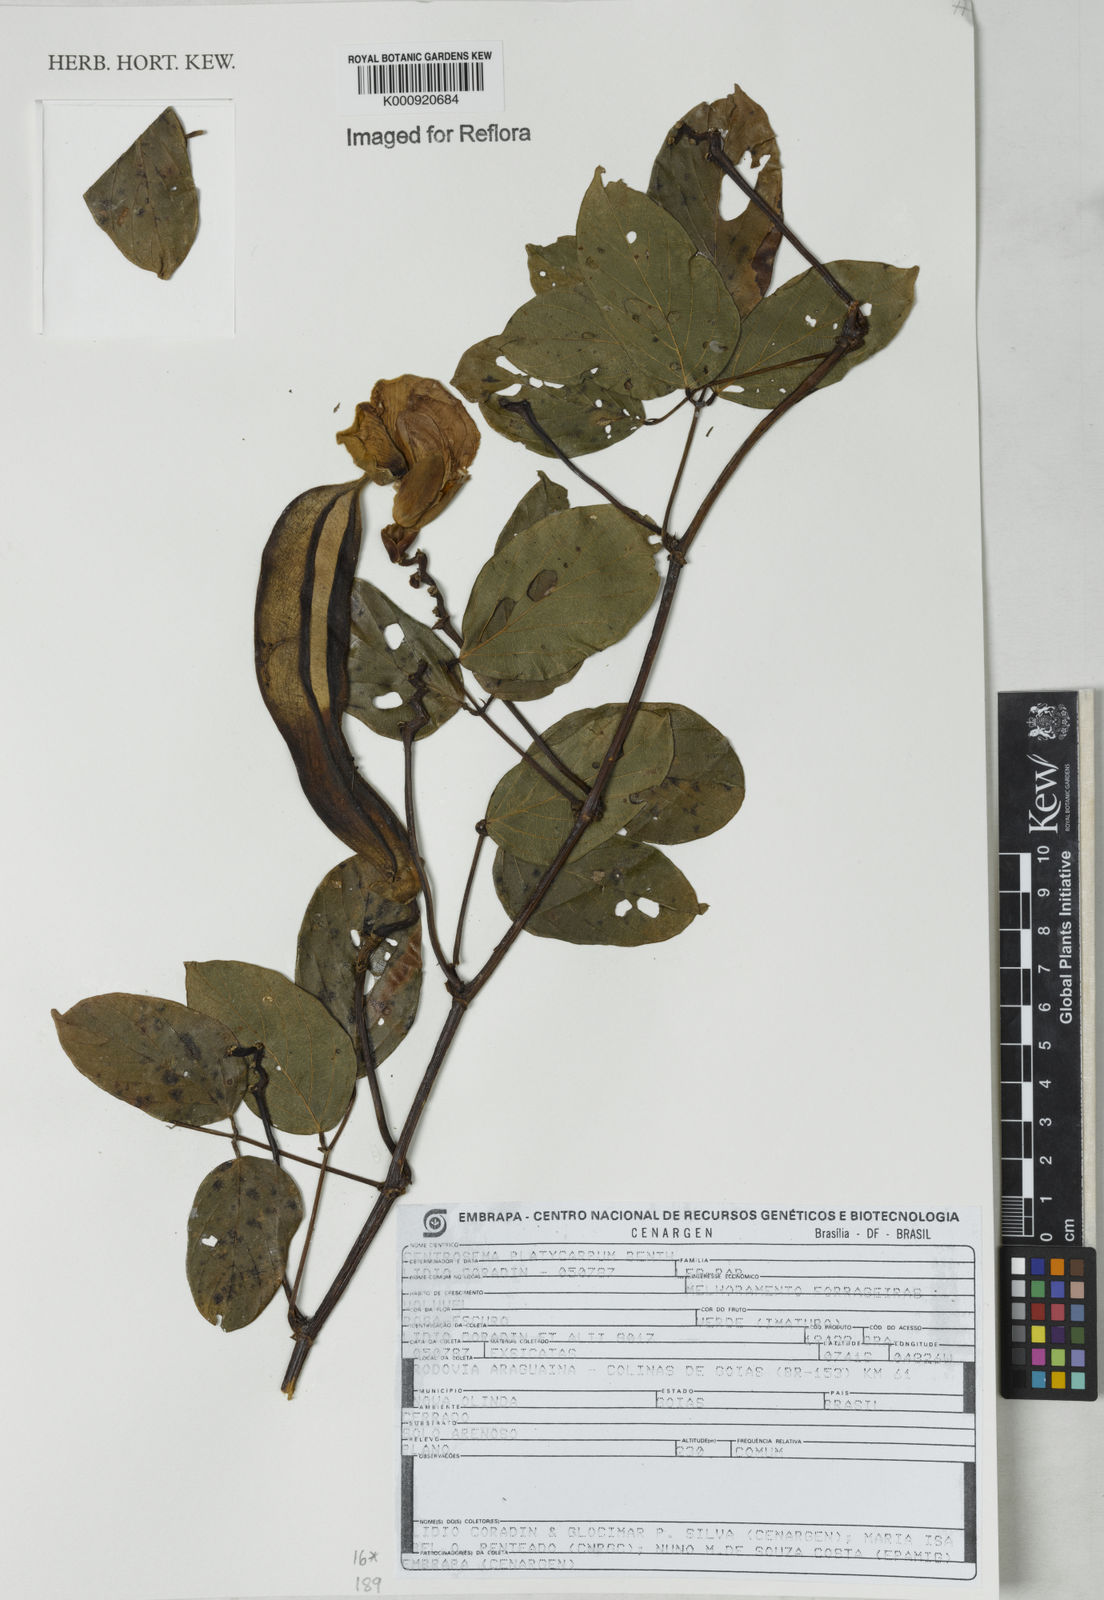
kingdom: Plantae
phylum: Tracheophyta
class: Magnoliopsida
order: Fabales
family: Fabaceae
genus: Centrosema
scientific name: Centrosema platycarpum
